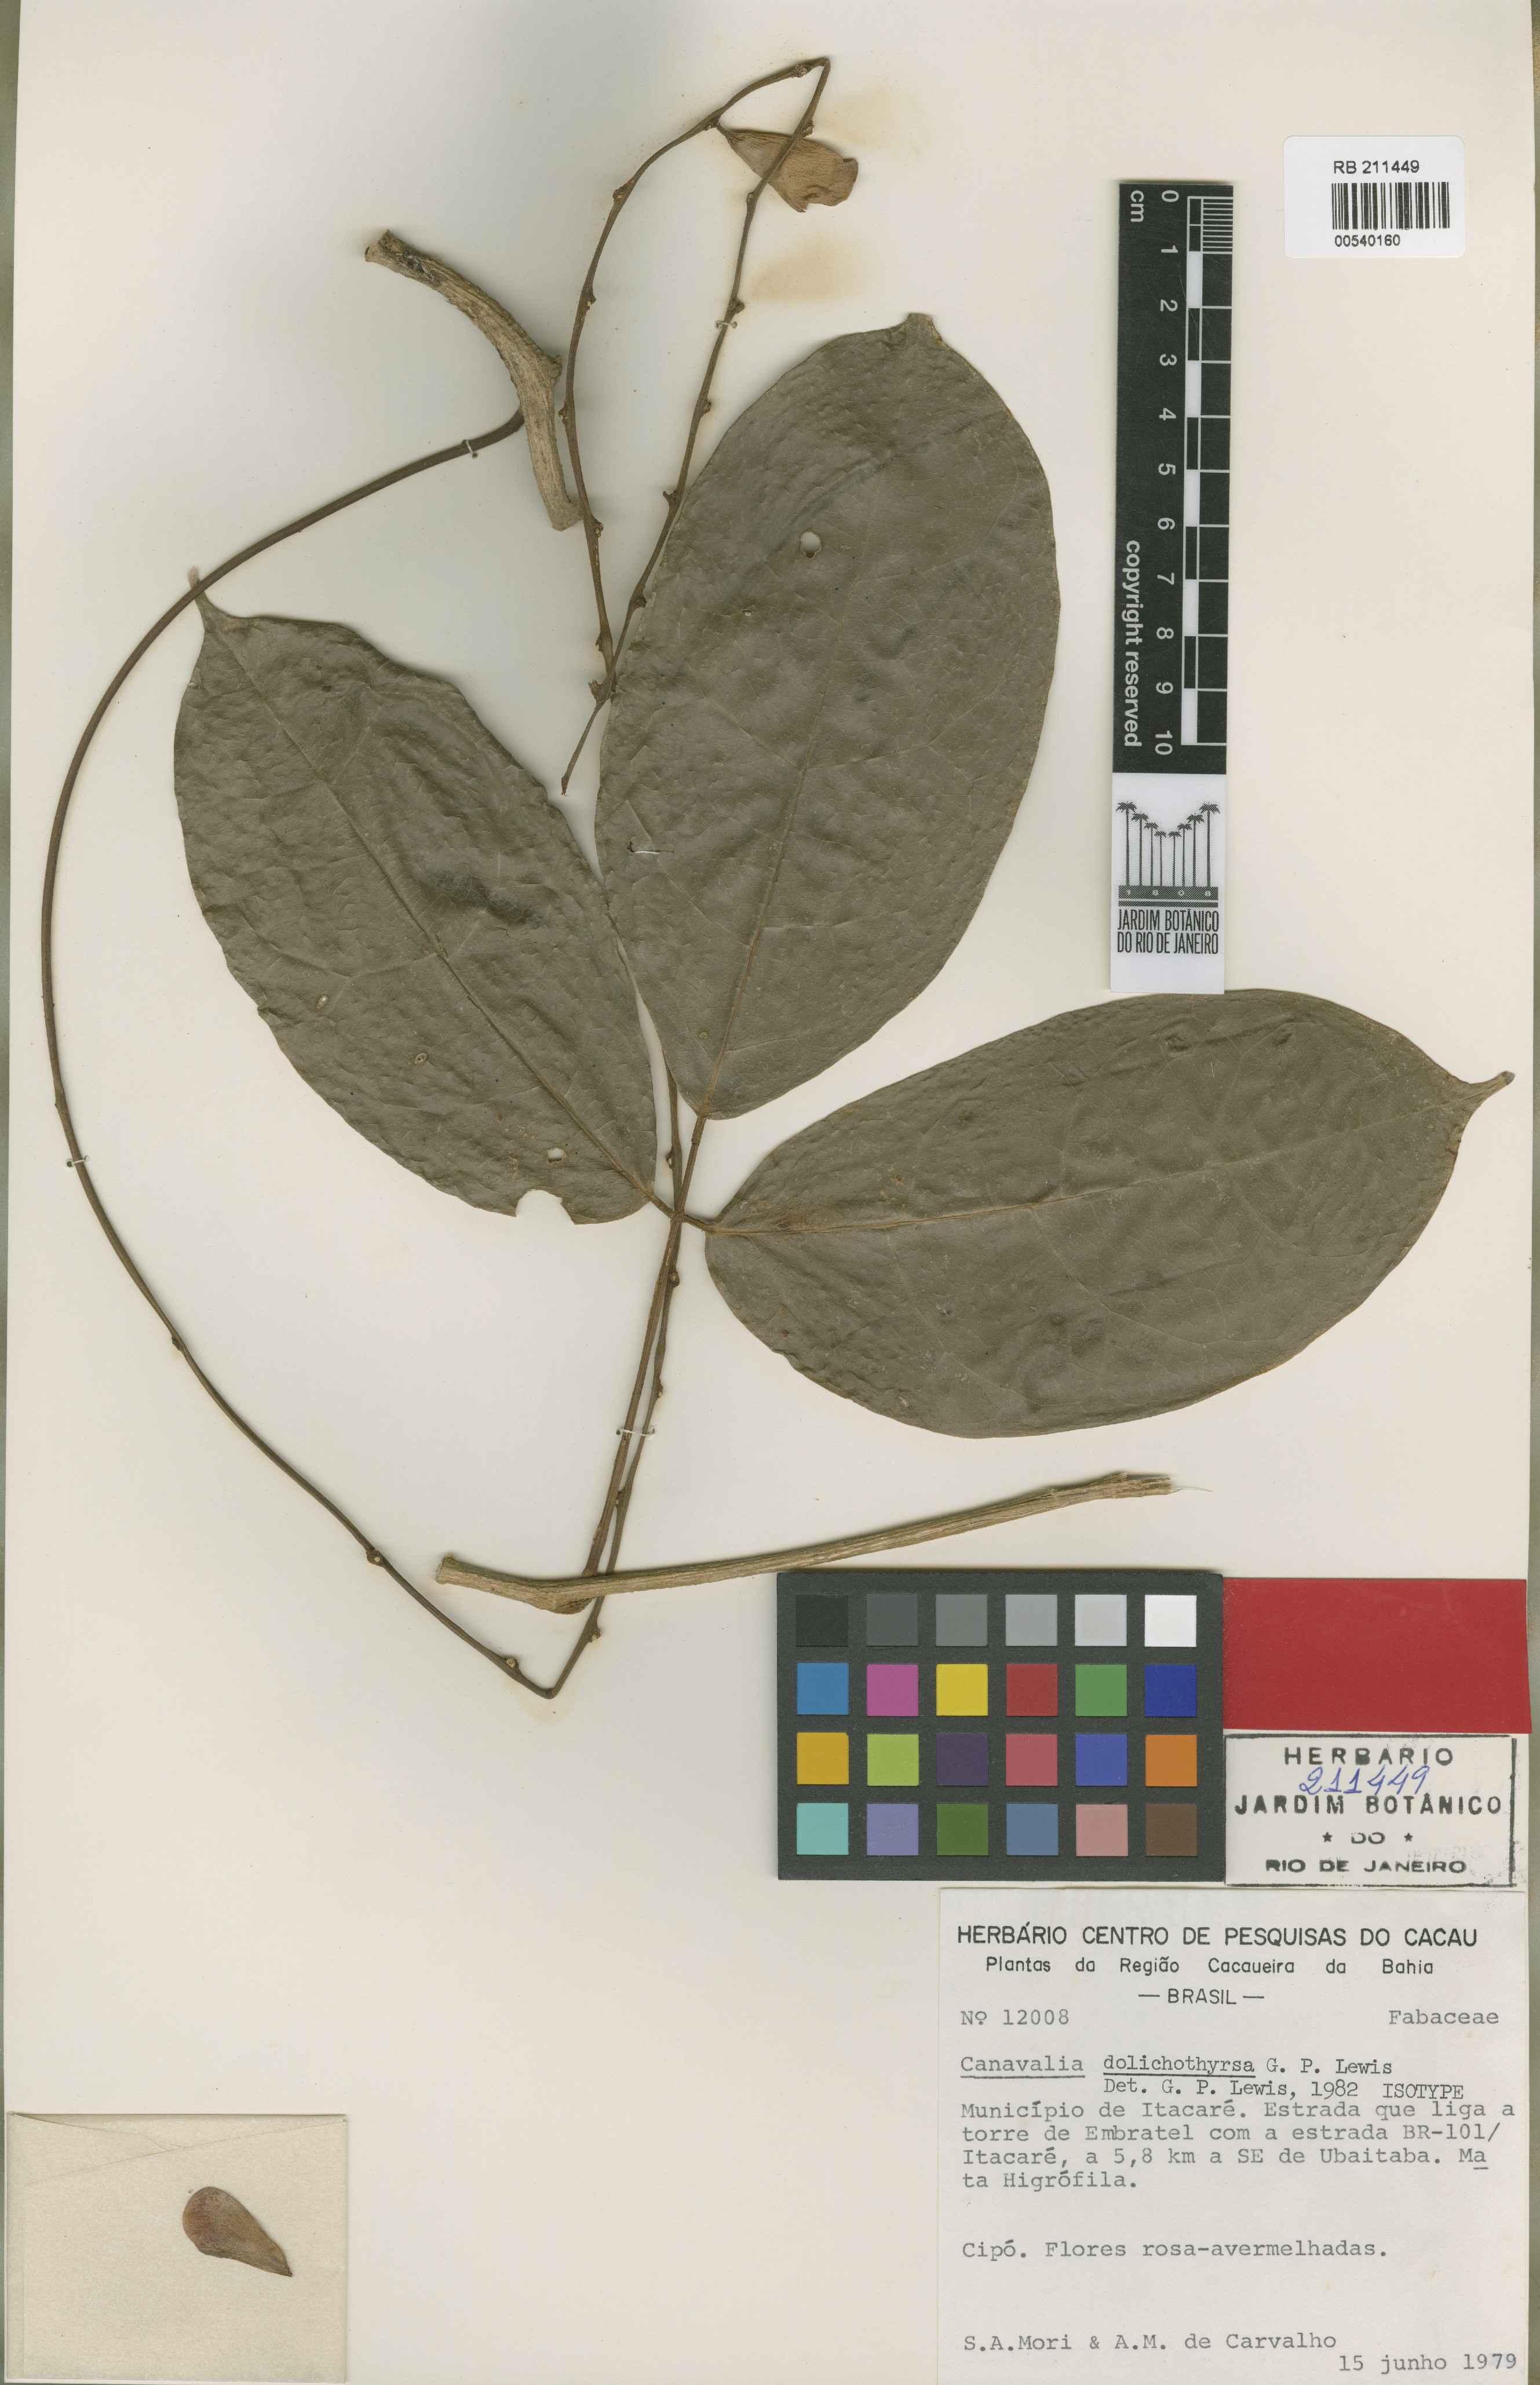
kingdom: Plantae
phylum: Tracheophyta
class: Magnoliopsida
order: Fabales
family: Fabaceae
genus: Canavalia
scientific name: Canavalia dolichothyrsa
